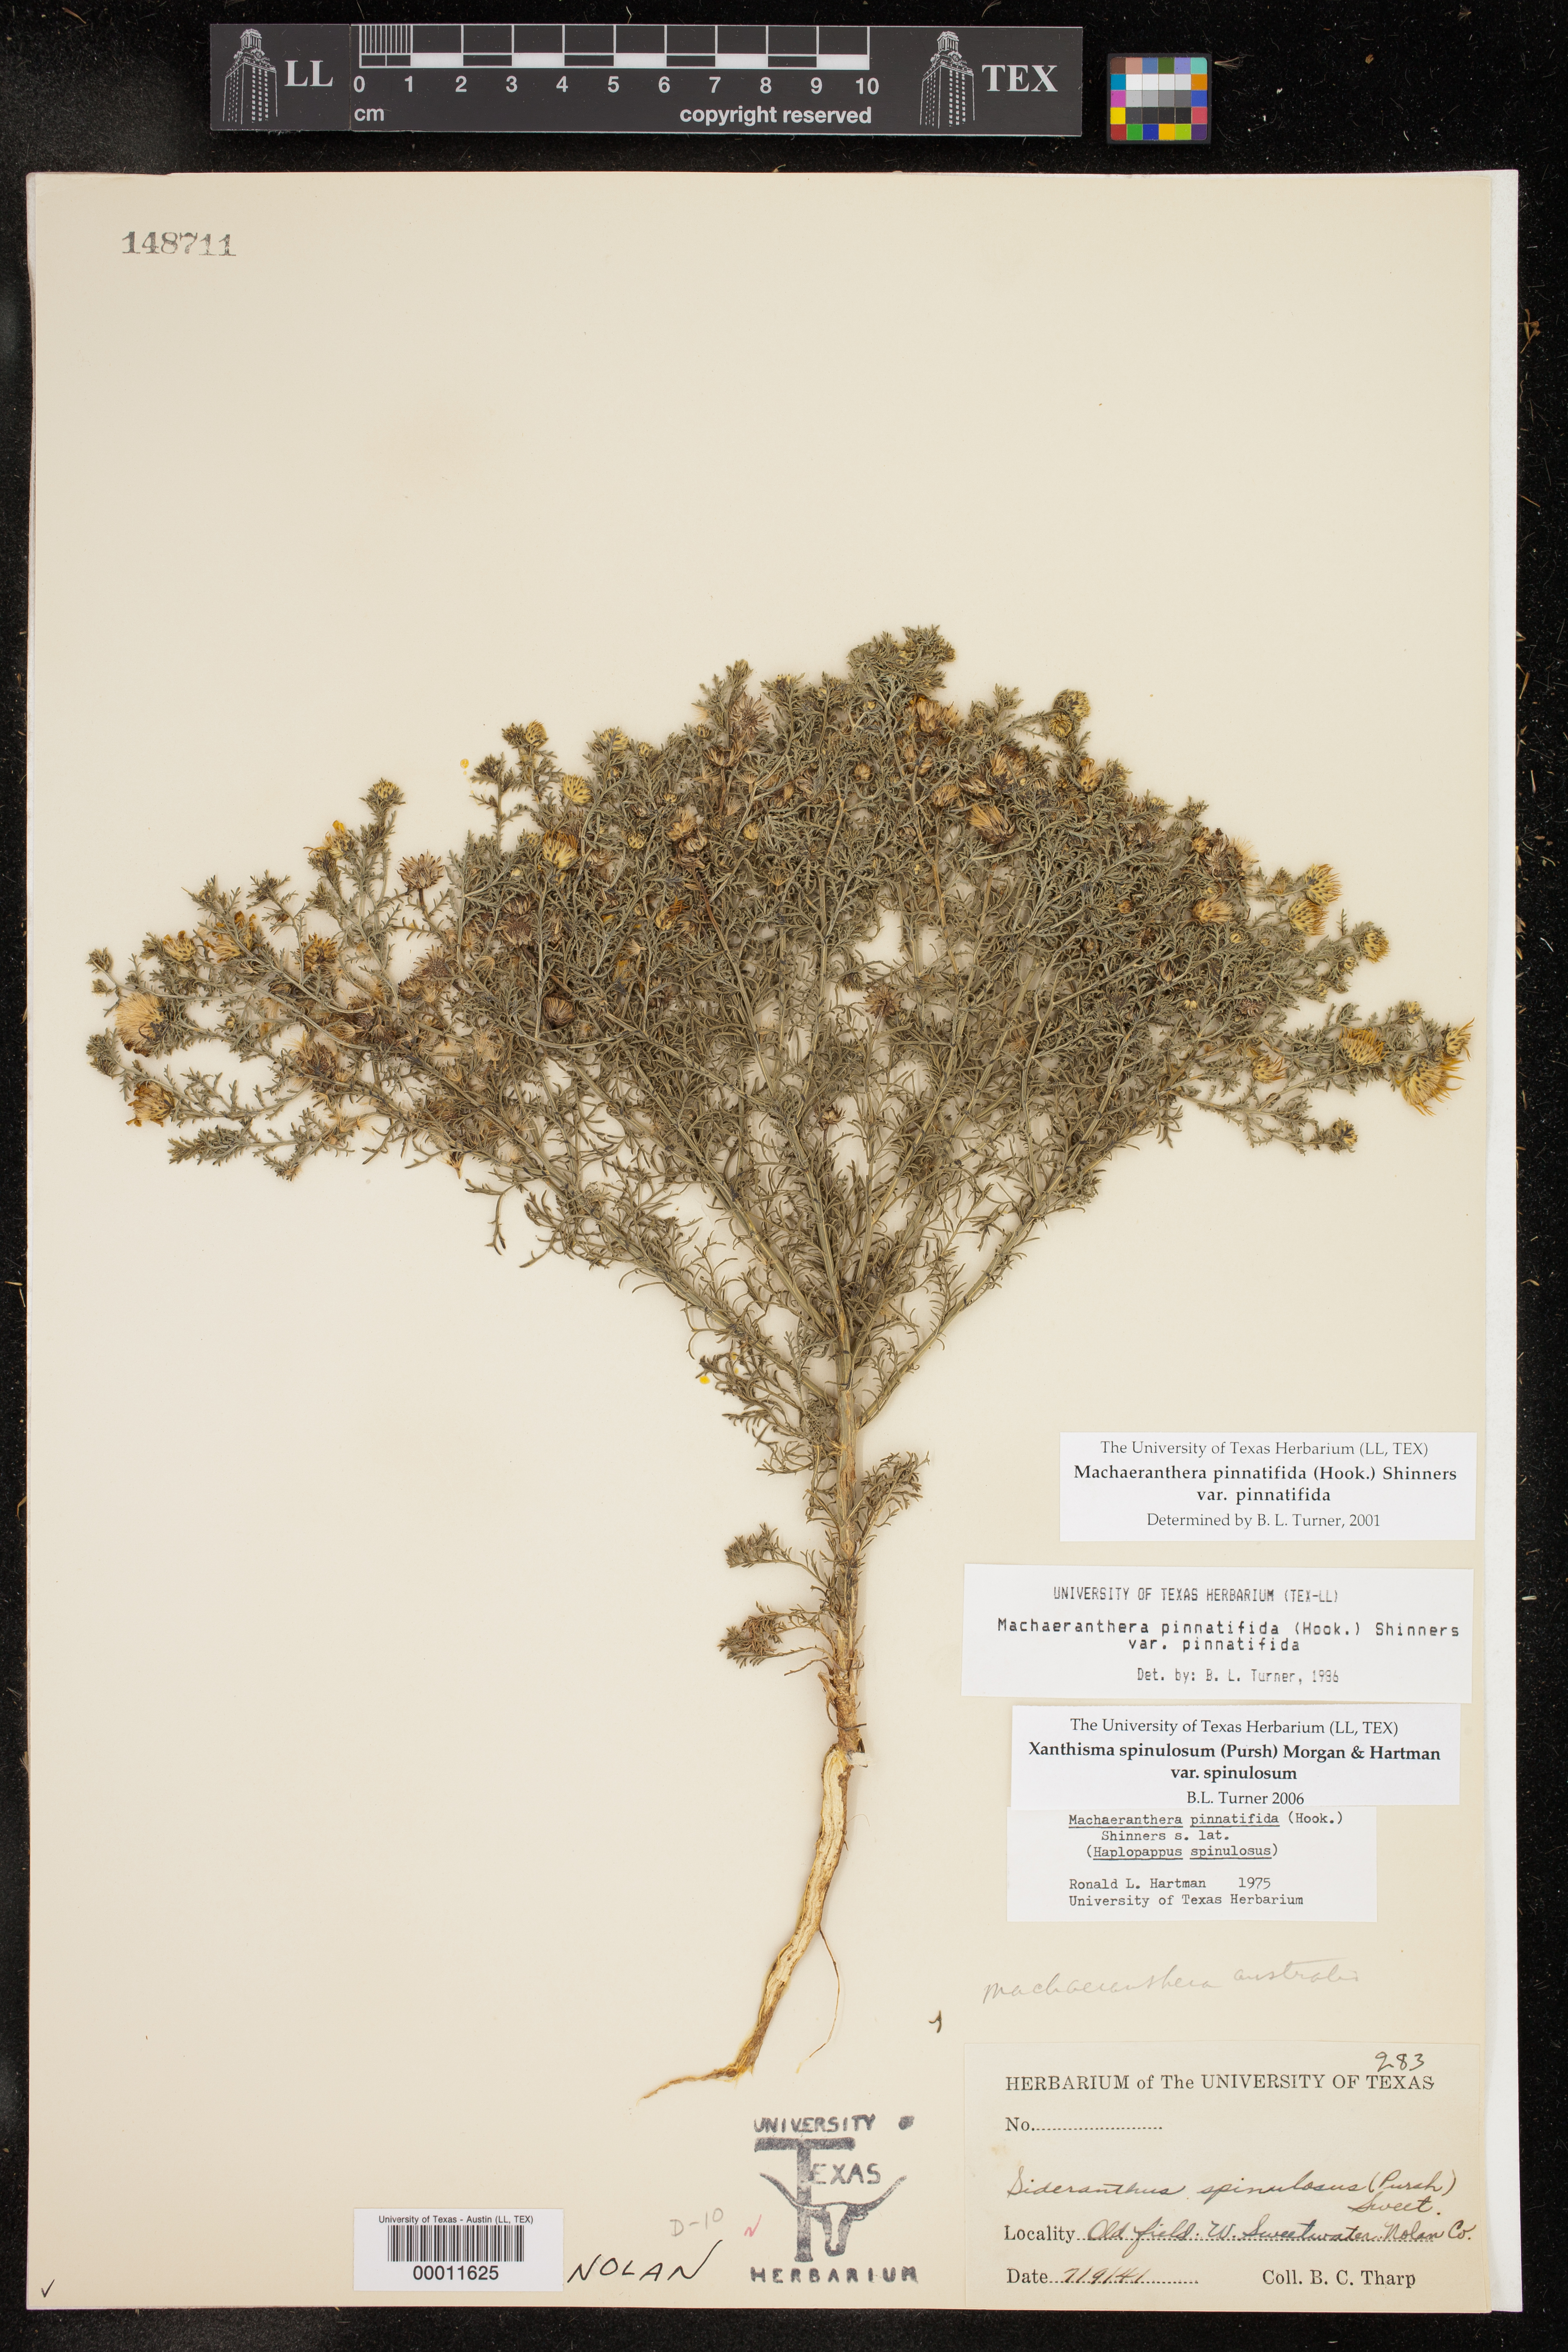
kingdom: Plantae
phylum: Tracheophyta
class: Magnoliopsida
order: Asterales
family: Asteraceae
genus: Xanthisma
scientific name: Xanthisma spinulosum
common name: Spiny goldenweed
